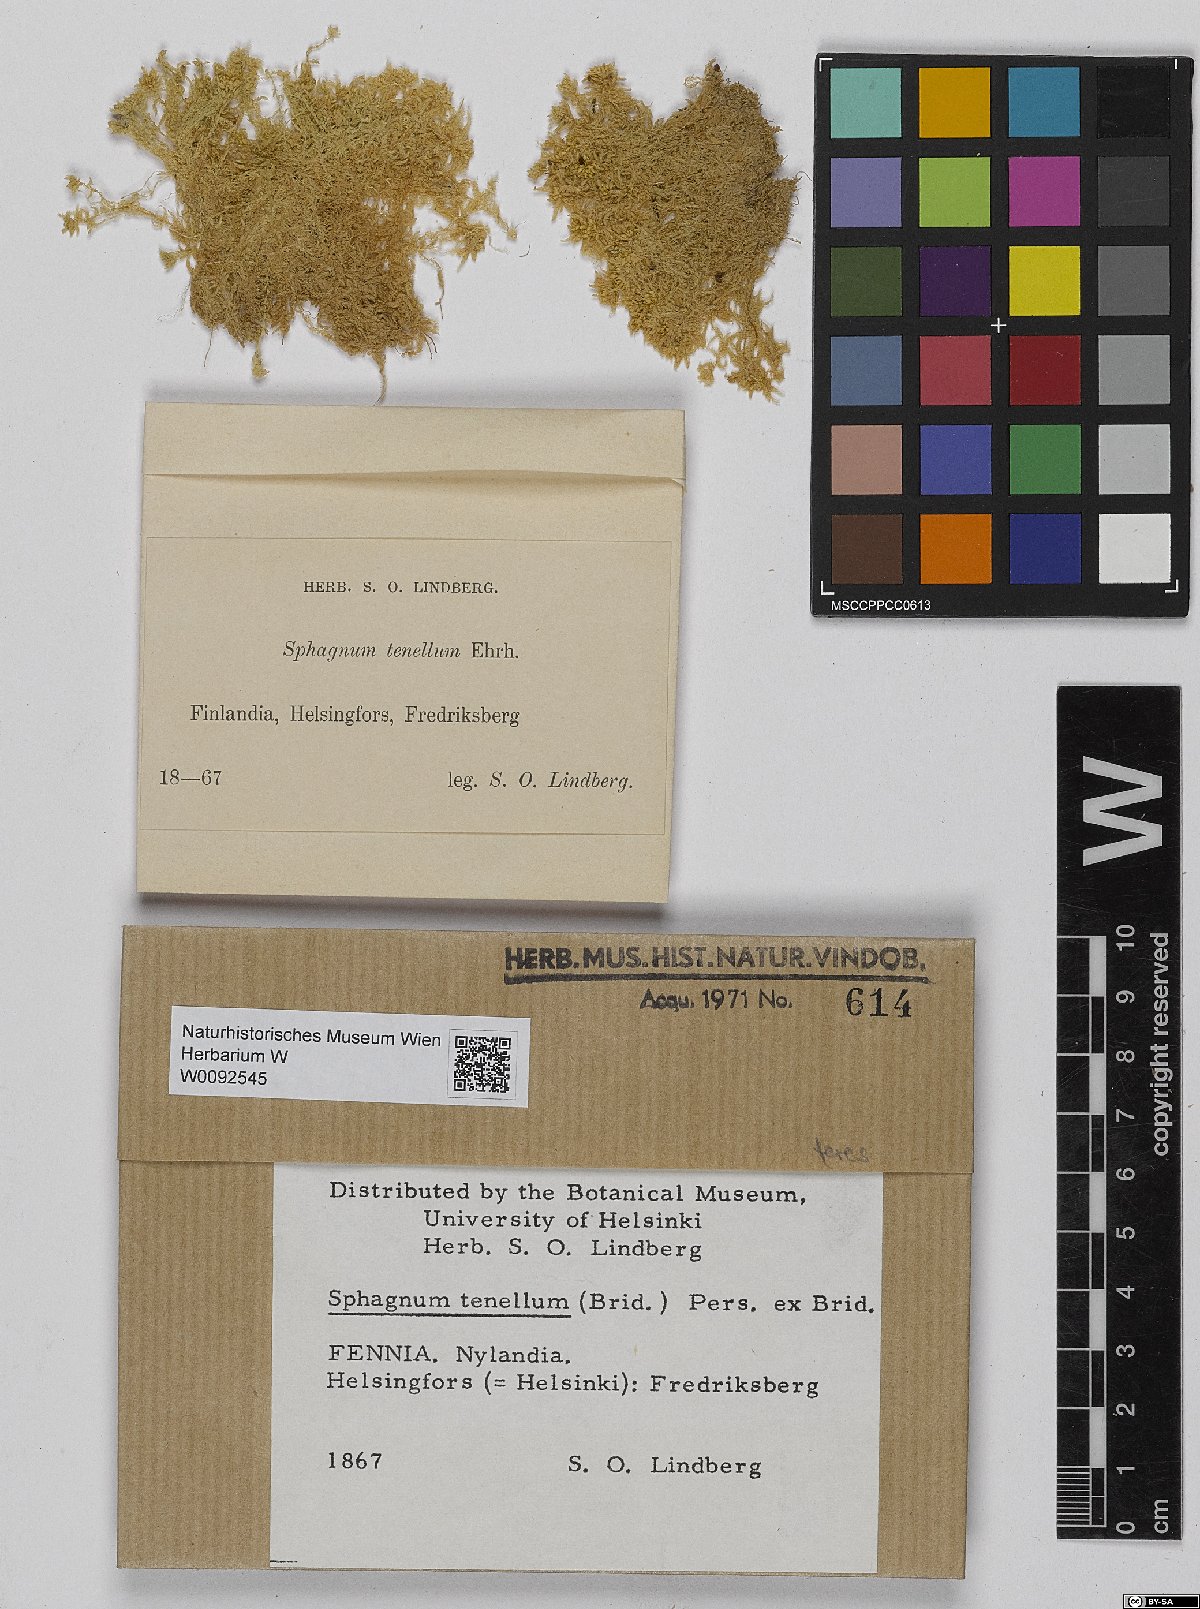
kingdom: Plantae
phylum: Bryophyta
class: Sphagnopsida
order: Sphagnales
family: Sphagnaceae
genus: Sphagnum
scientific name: Sphagnum teres
